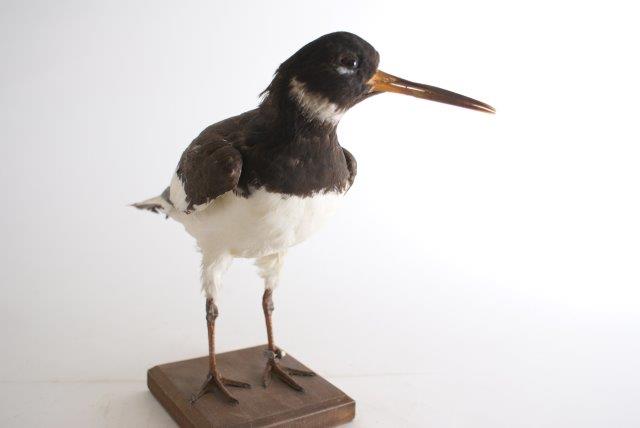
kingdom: Animalia
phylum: Chordata
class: Aves
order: Charadriiformes
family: Haematopodidae
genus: Haematopus
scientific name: Haematopus ostralegus
